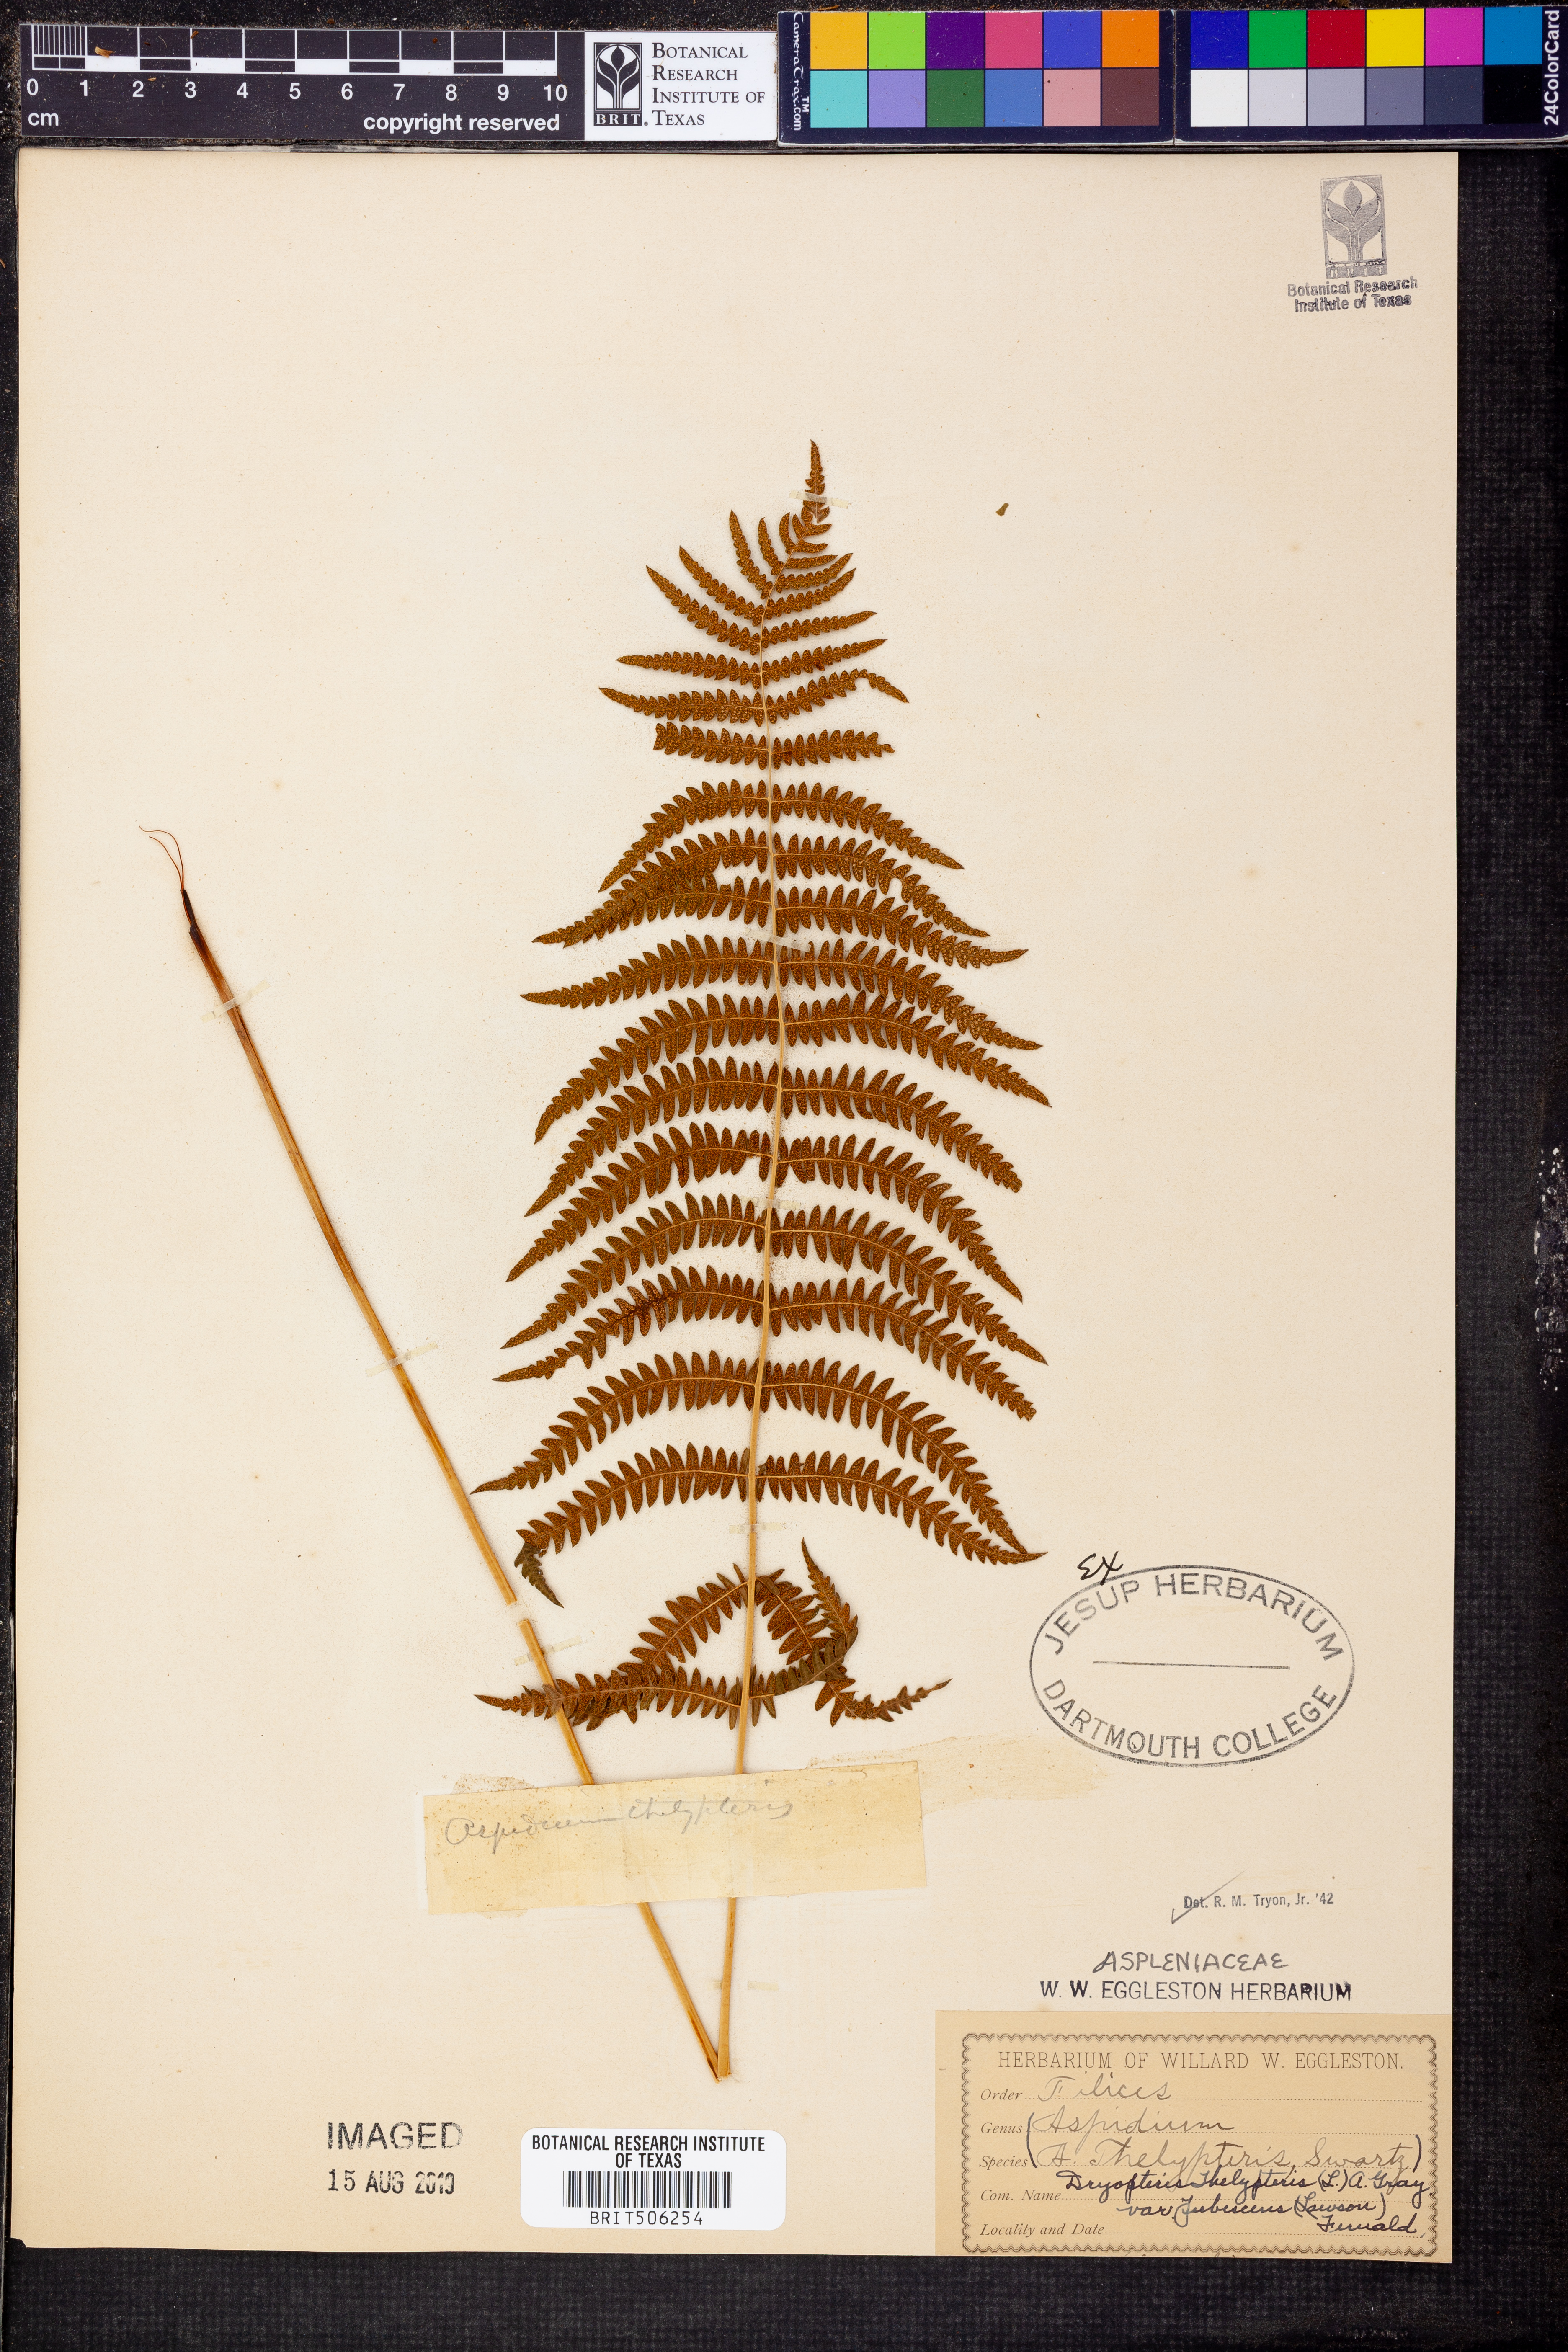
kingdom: Plantae
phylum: Tracheophyta
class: Polypodiopsida
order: Polypodiales
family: Thelypteridaceae
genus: Thelypteris
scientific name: Thelypteris palustris
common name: Marsh fern
